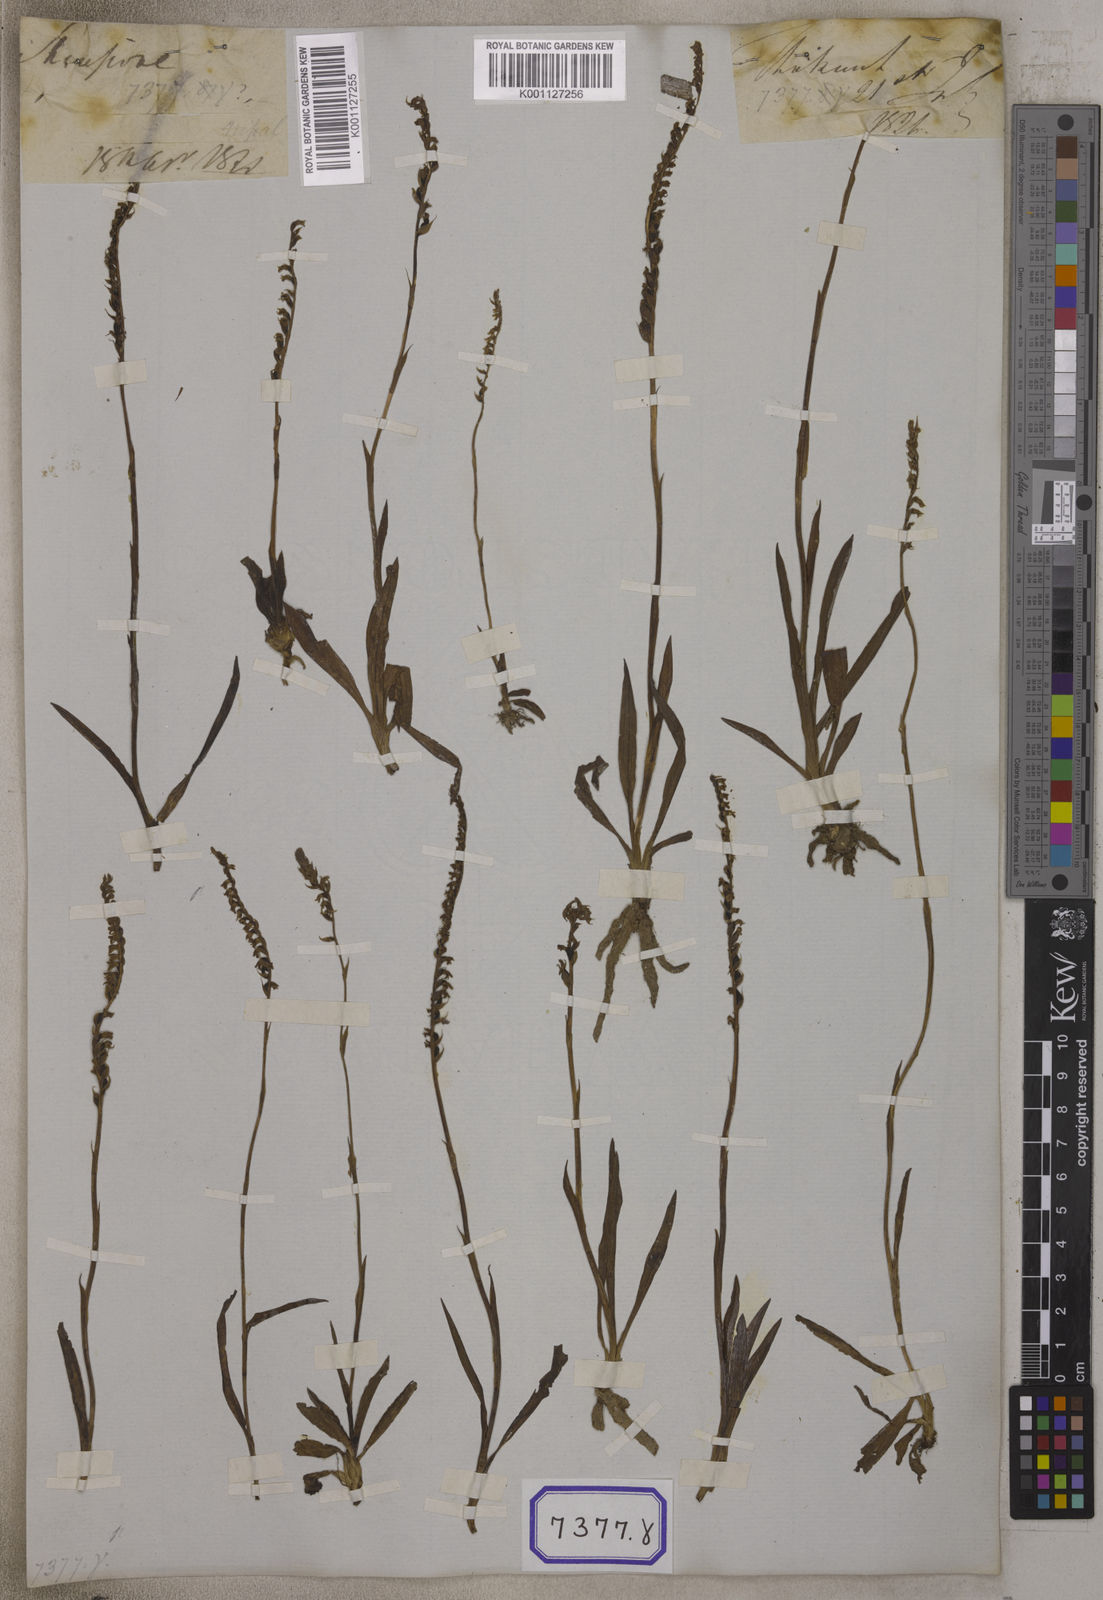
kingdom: Plantae
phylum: Tracheophyta
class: Liliopsida
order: Asparagales
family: Orchidaceae
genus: Spiranthes
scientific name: Spiranthes
